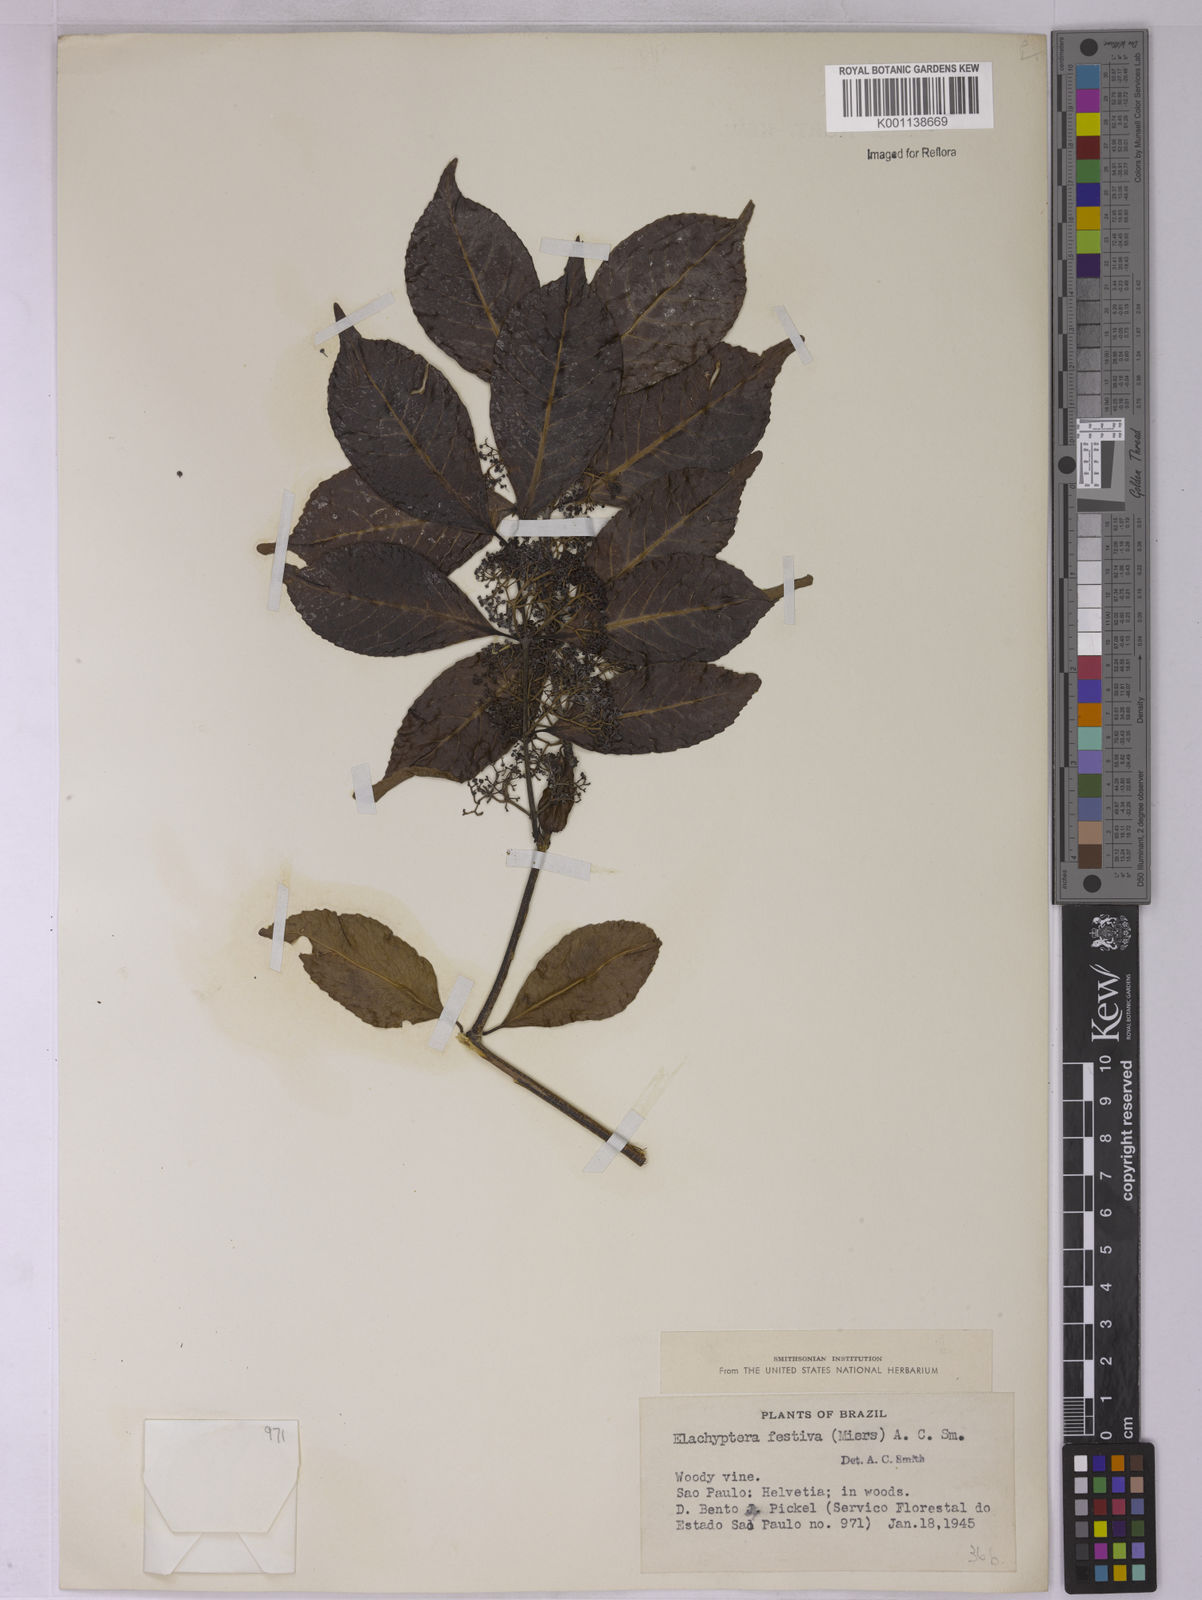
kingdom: Plantae
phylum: Tracheophyta
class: Magnoliopsida
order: Celastrales
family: Celastraceae
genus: Elachyptera
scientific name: Elachyptera festiva
